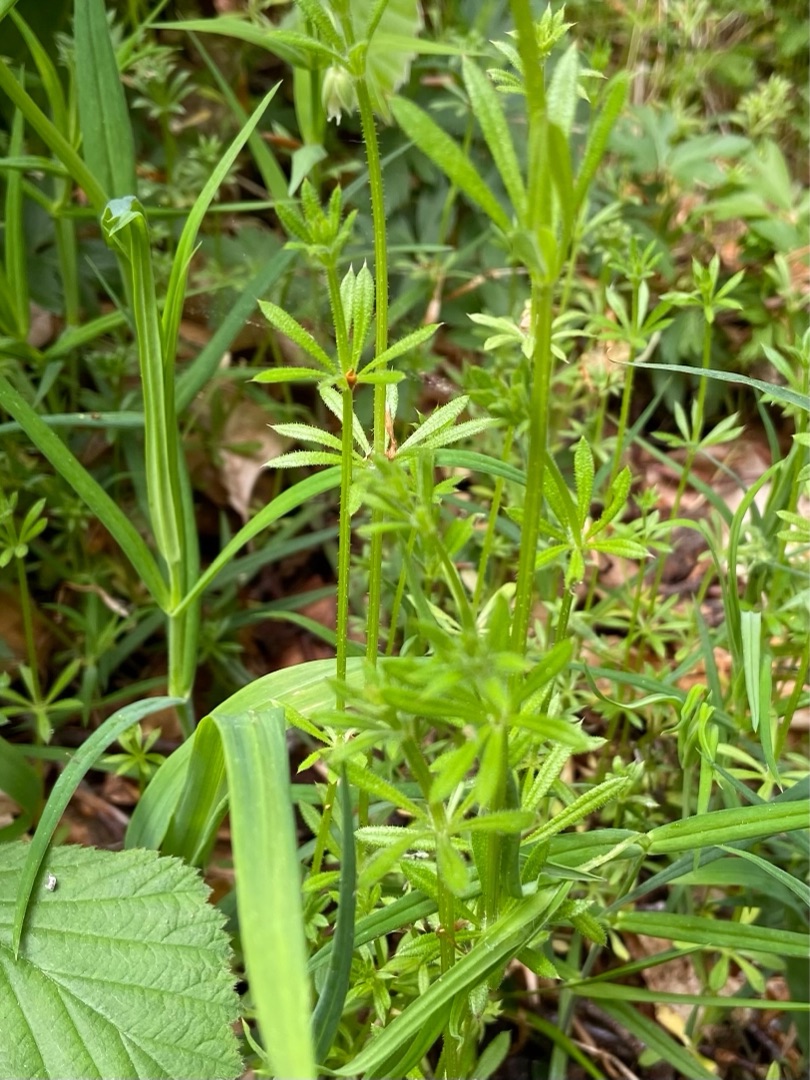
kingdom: Plantae
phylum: Tracheophyta
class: Magnoliopsida
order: Gentianales
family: Rubiaceae
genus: Galium
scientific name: Galium aparine
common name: Burre-snerre
